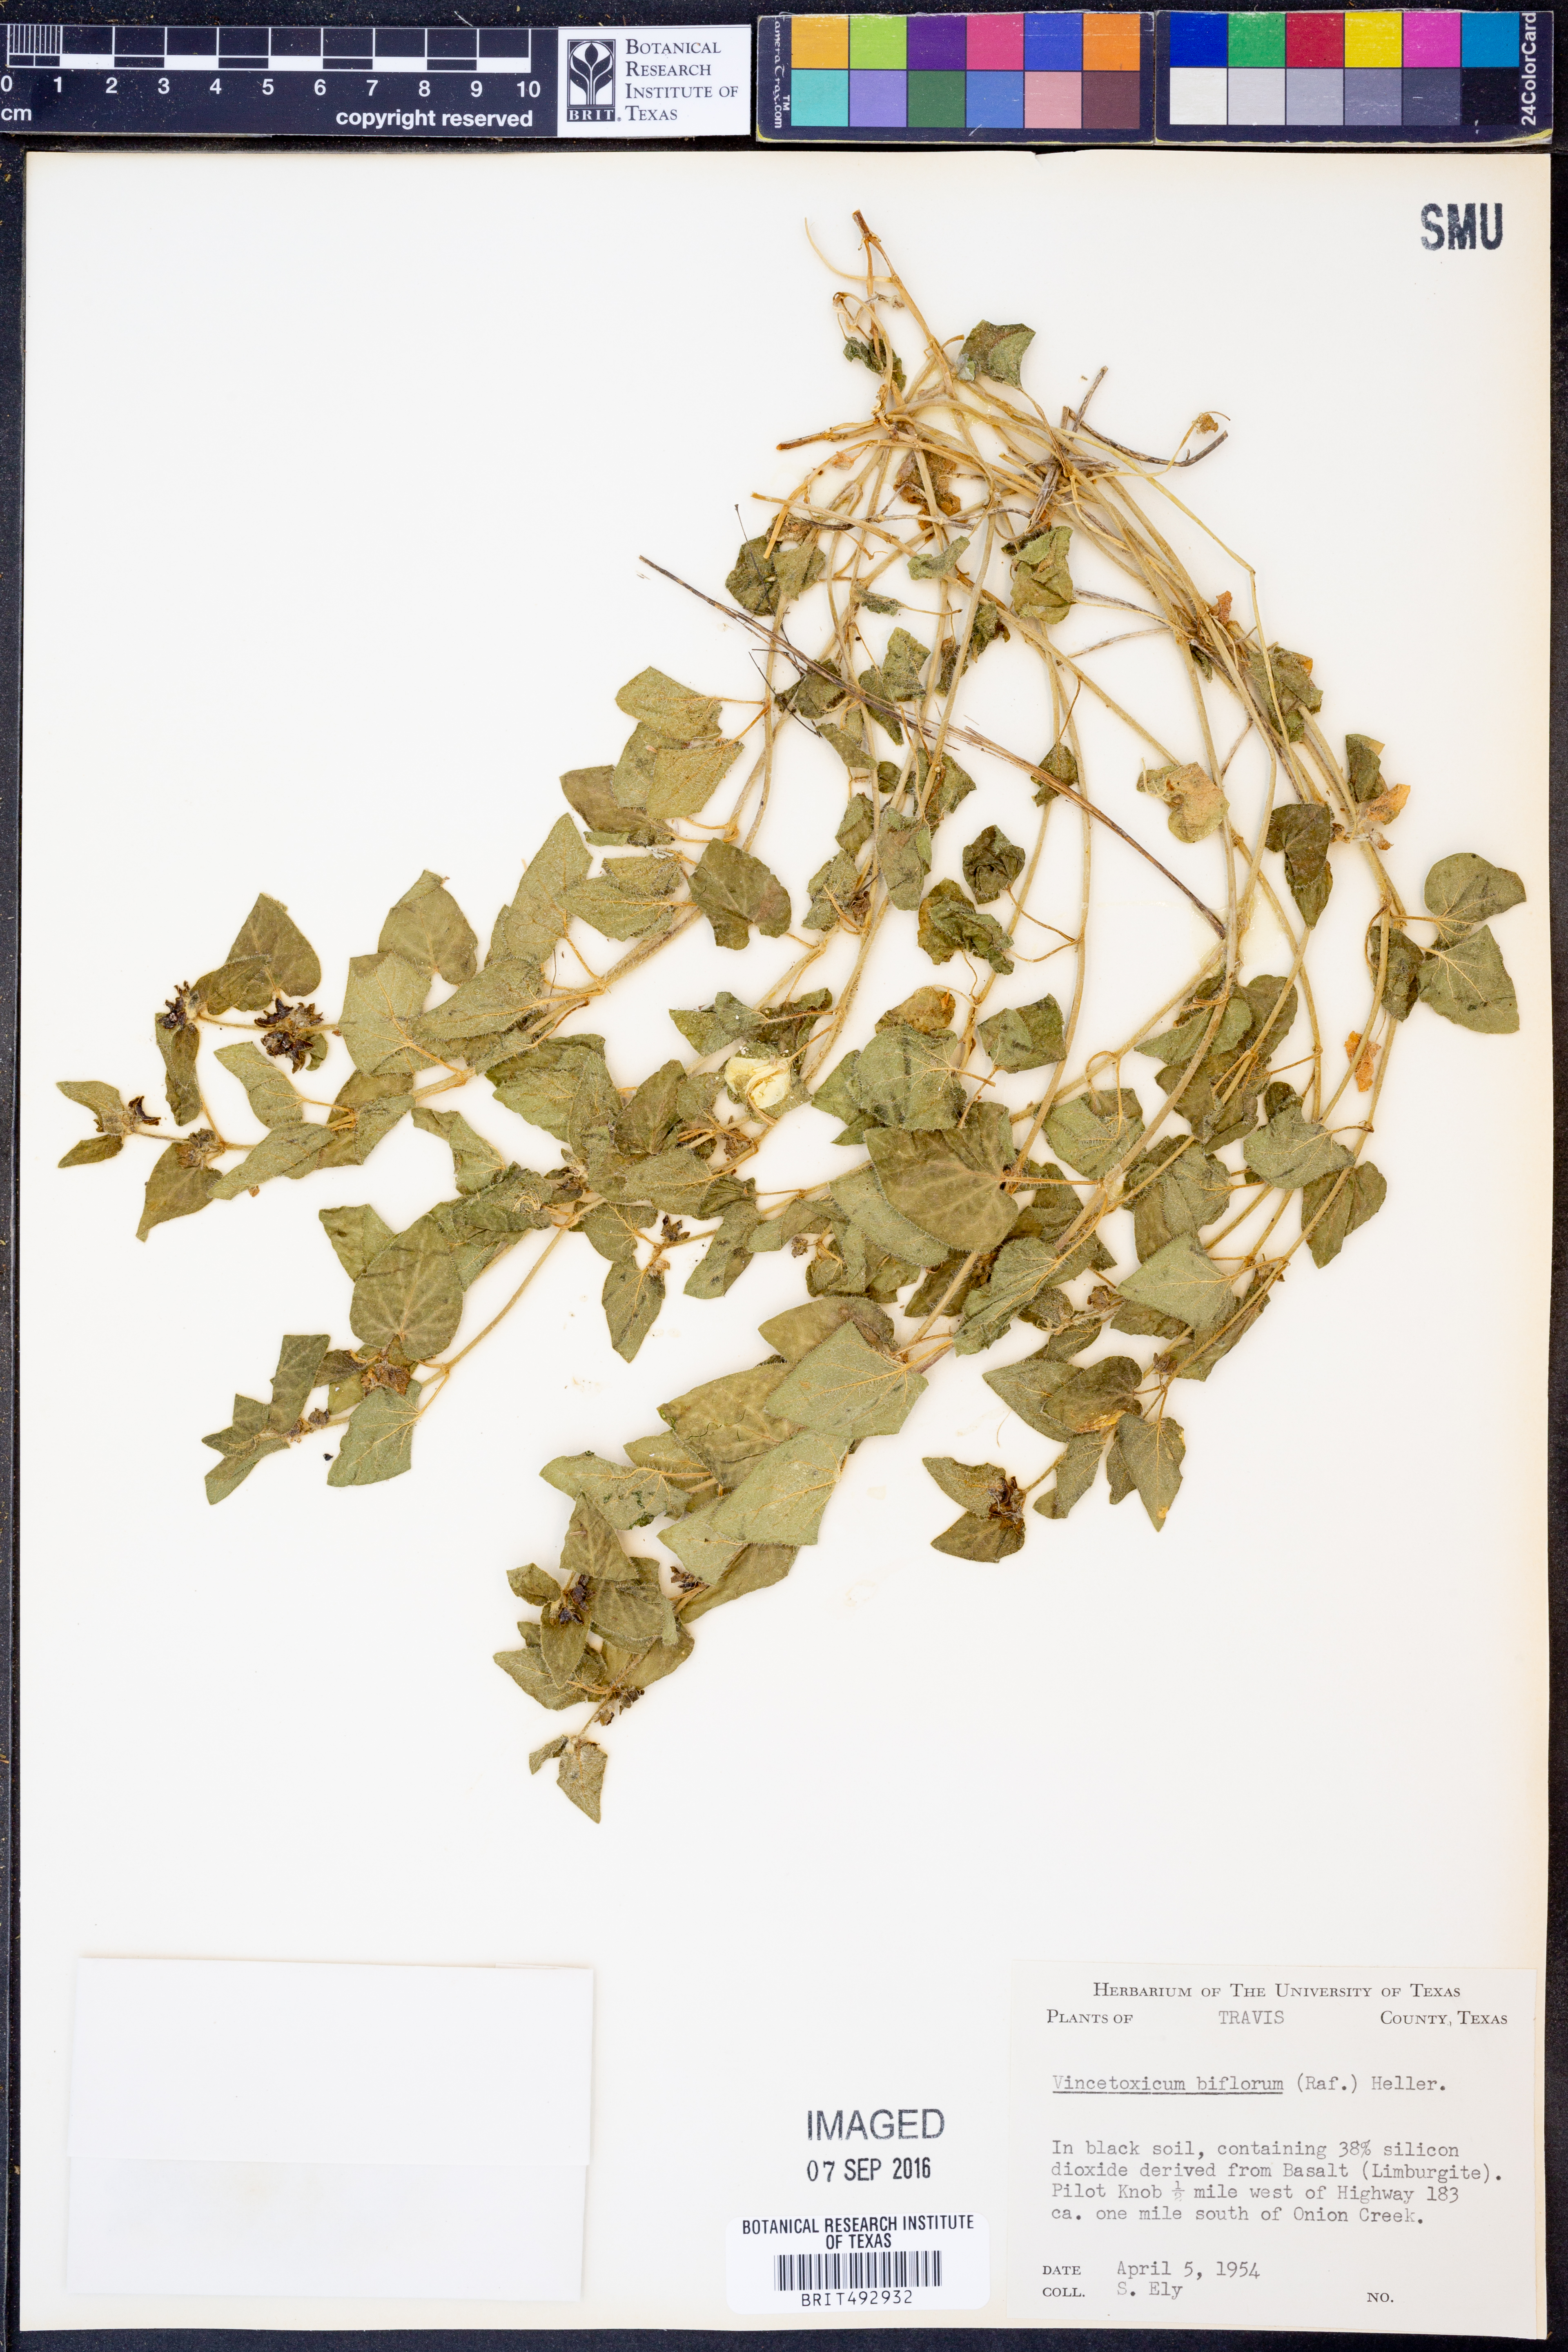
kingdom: Plantae
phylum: Tracheophyta
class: Magnoliopsida
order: Gentianales
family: Apocynaceae
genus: Chthamalia
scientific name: Chthamalia biflora
